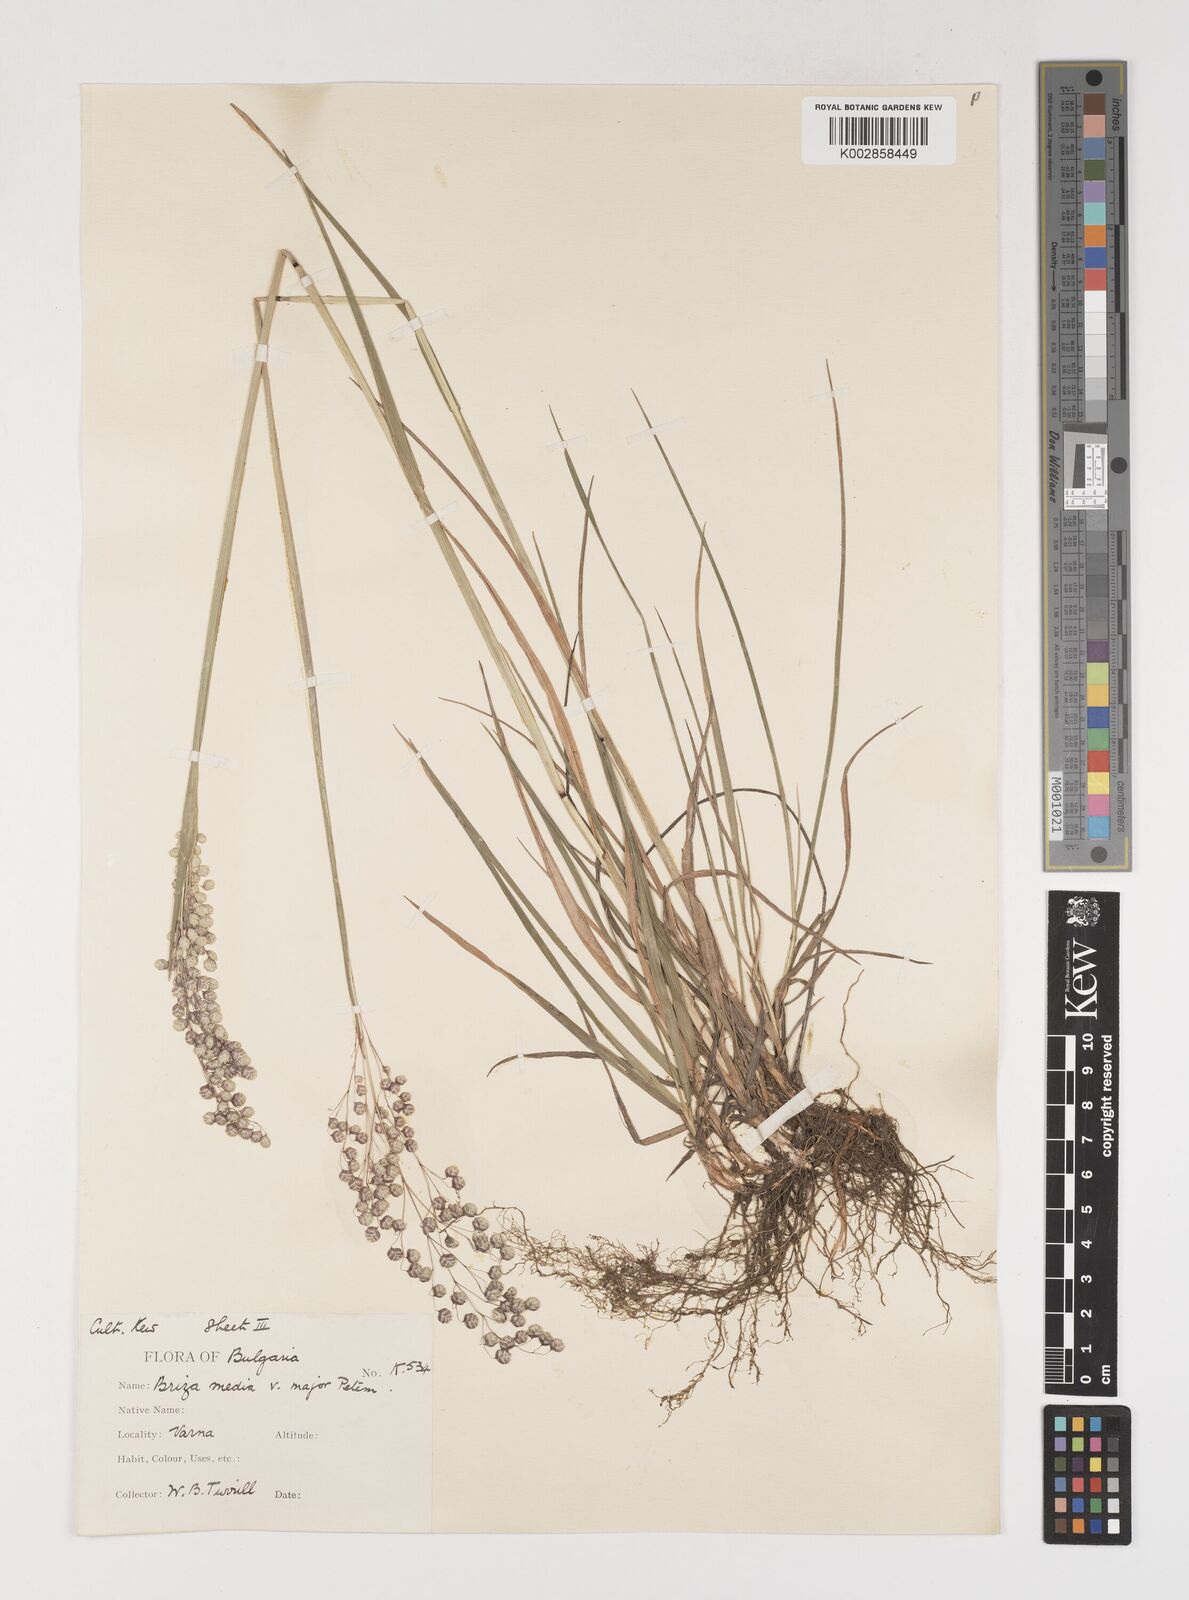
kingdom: Plantae
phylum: Tracheophyta
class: Liliopsida
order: Poales
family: Poaceae
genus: Briza
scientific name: Briza media
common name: Quaking grass
